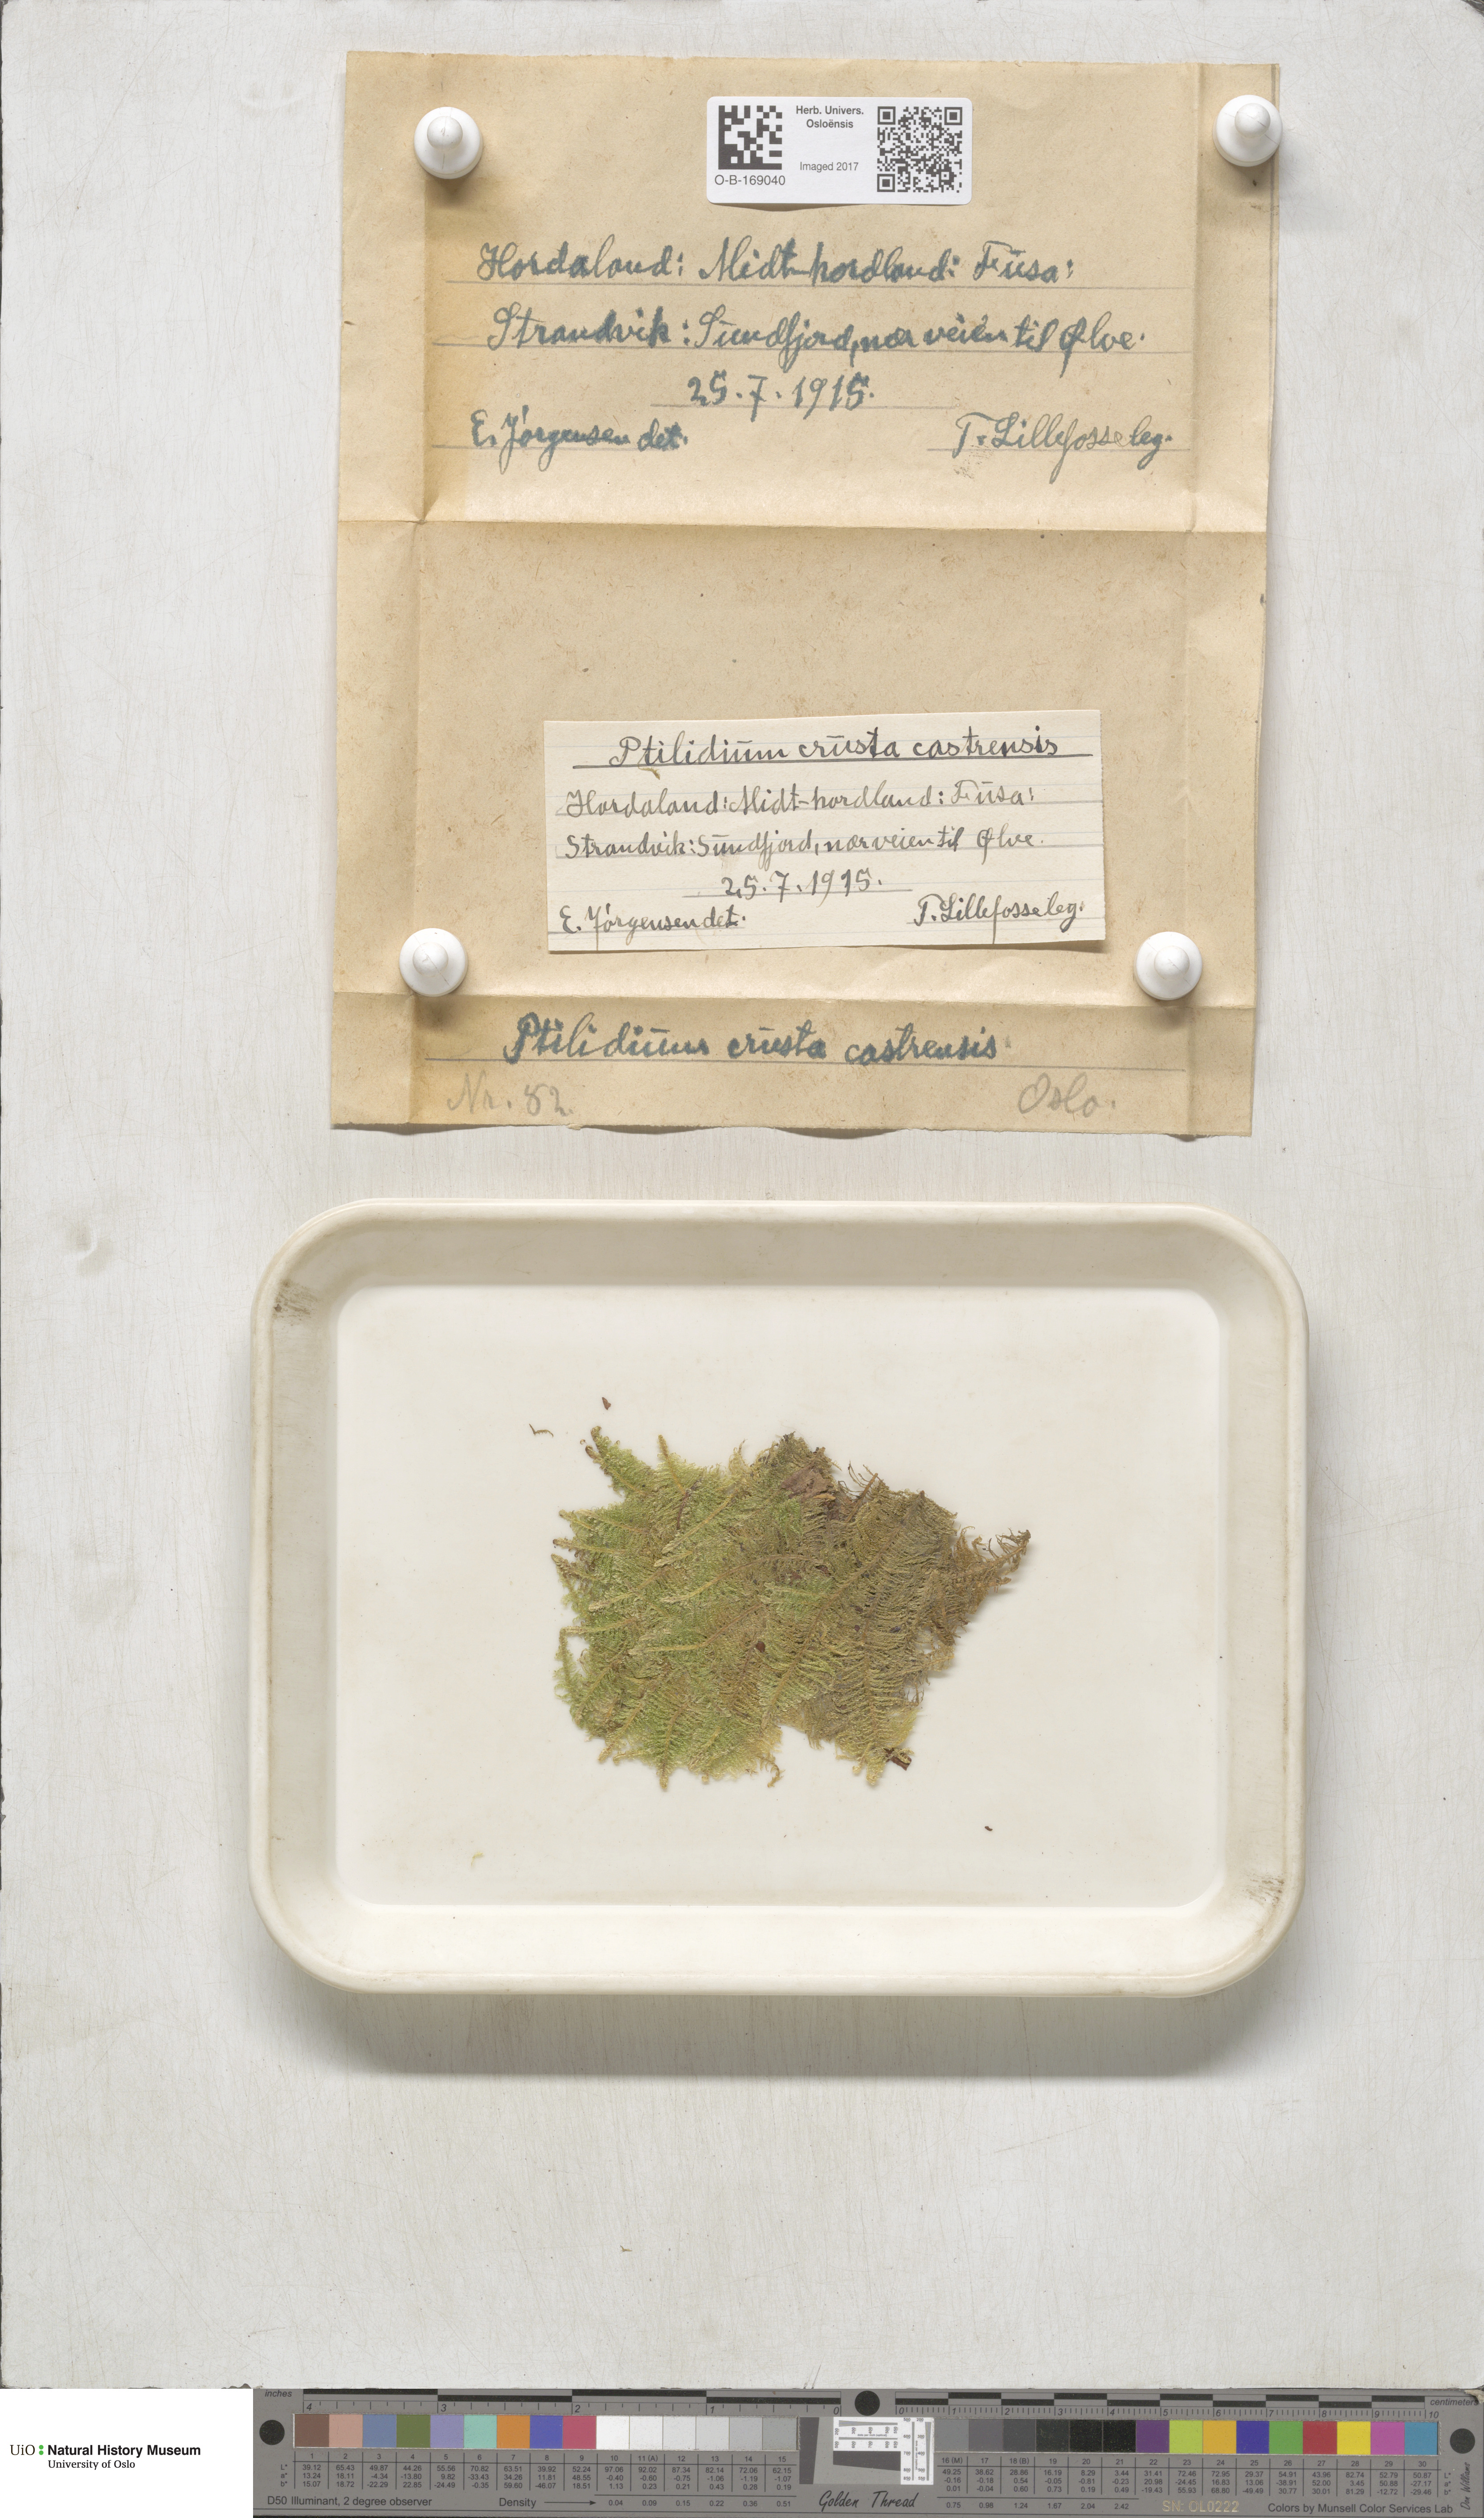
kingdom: Plantae
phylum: Bryophyta
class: Bryopsida
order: Hypnales
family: Pylaisiaceae
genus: Ptilium
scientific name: Ptilium crista-castrensis
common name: Knight's plume moss
